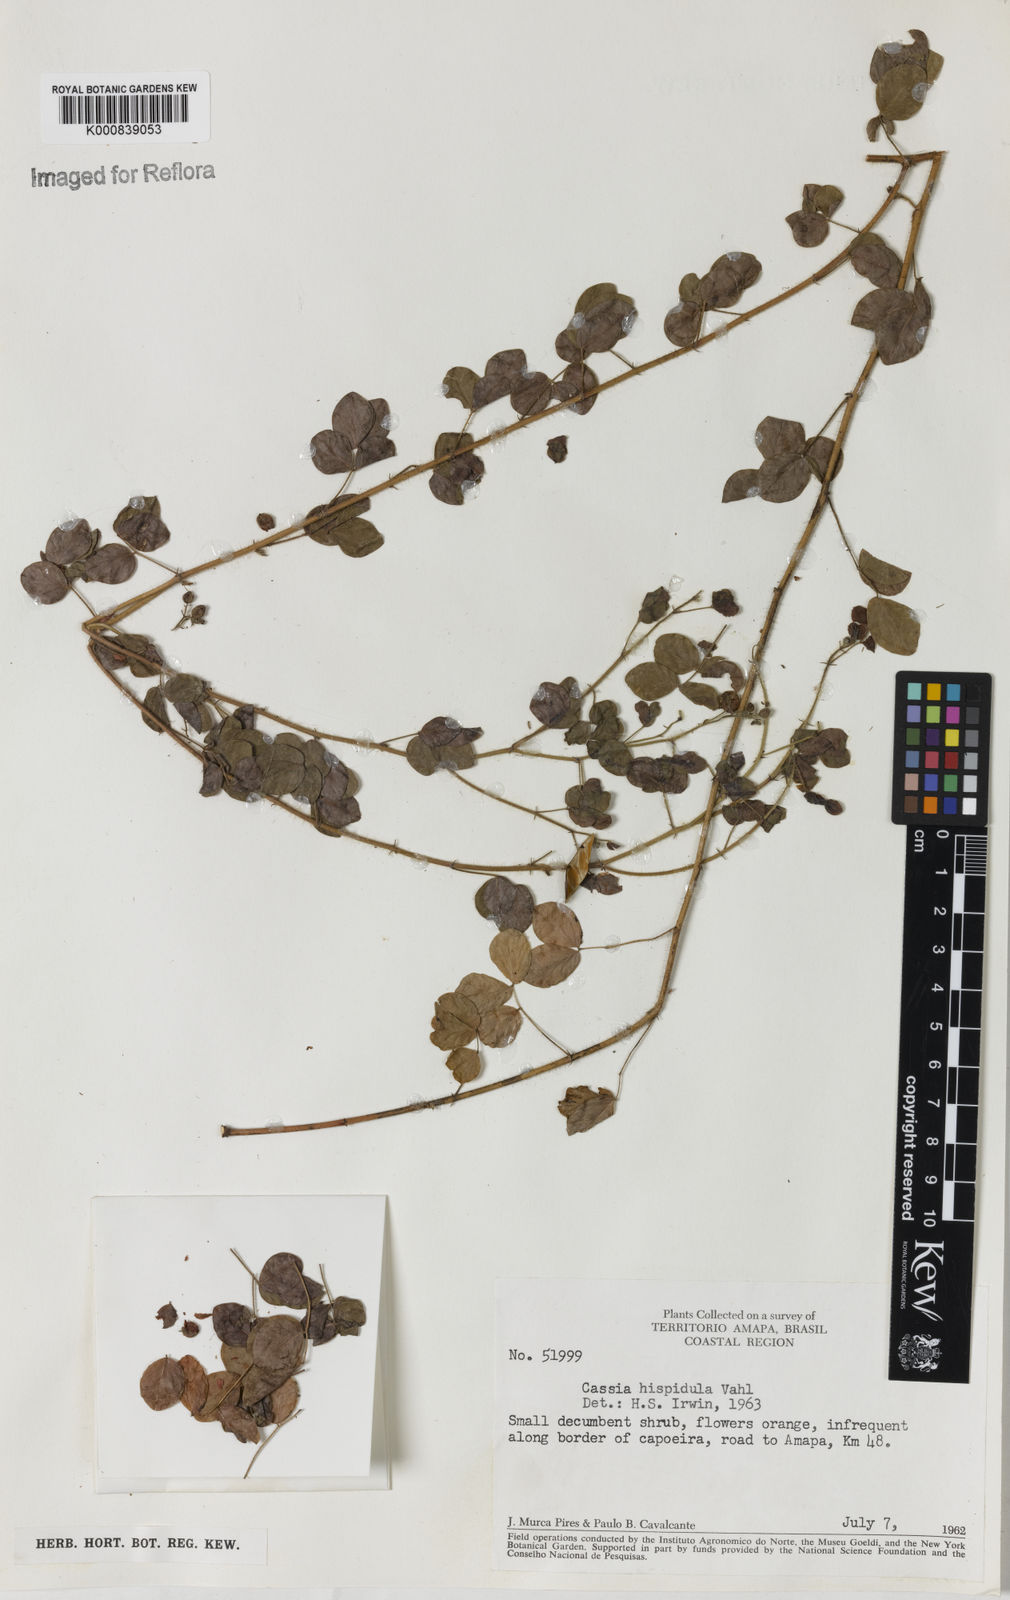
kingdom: Plantae
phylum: Tracheophyta
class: Magnoliopsida
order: Fabales
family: Fabaceae
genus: Chamaecrista
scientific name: Chamaecrista hispidula
